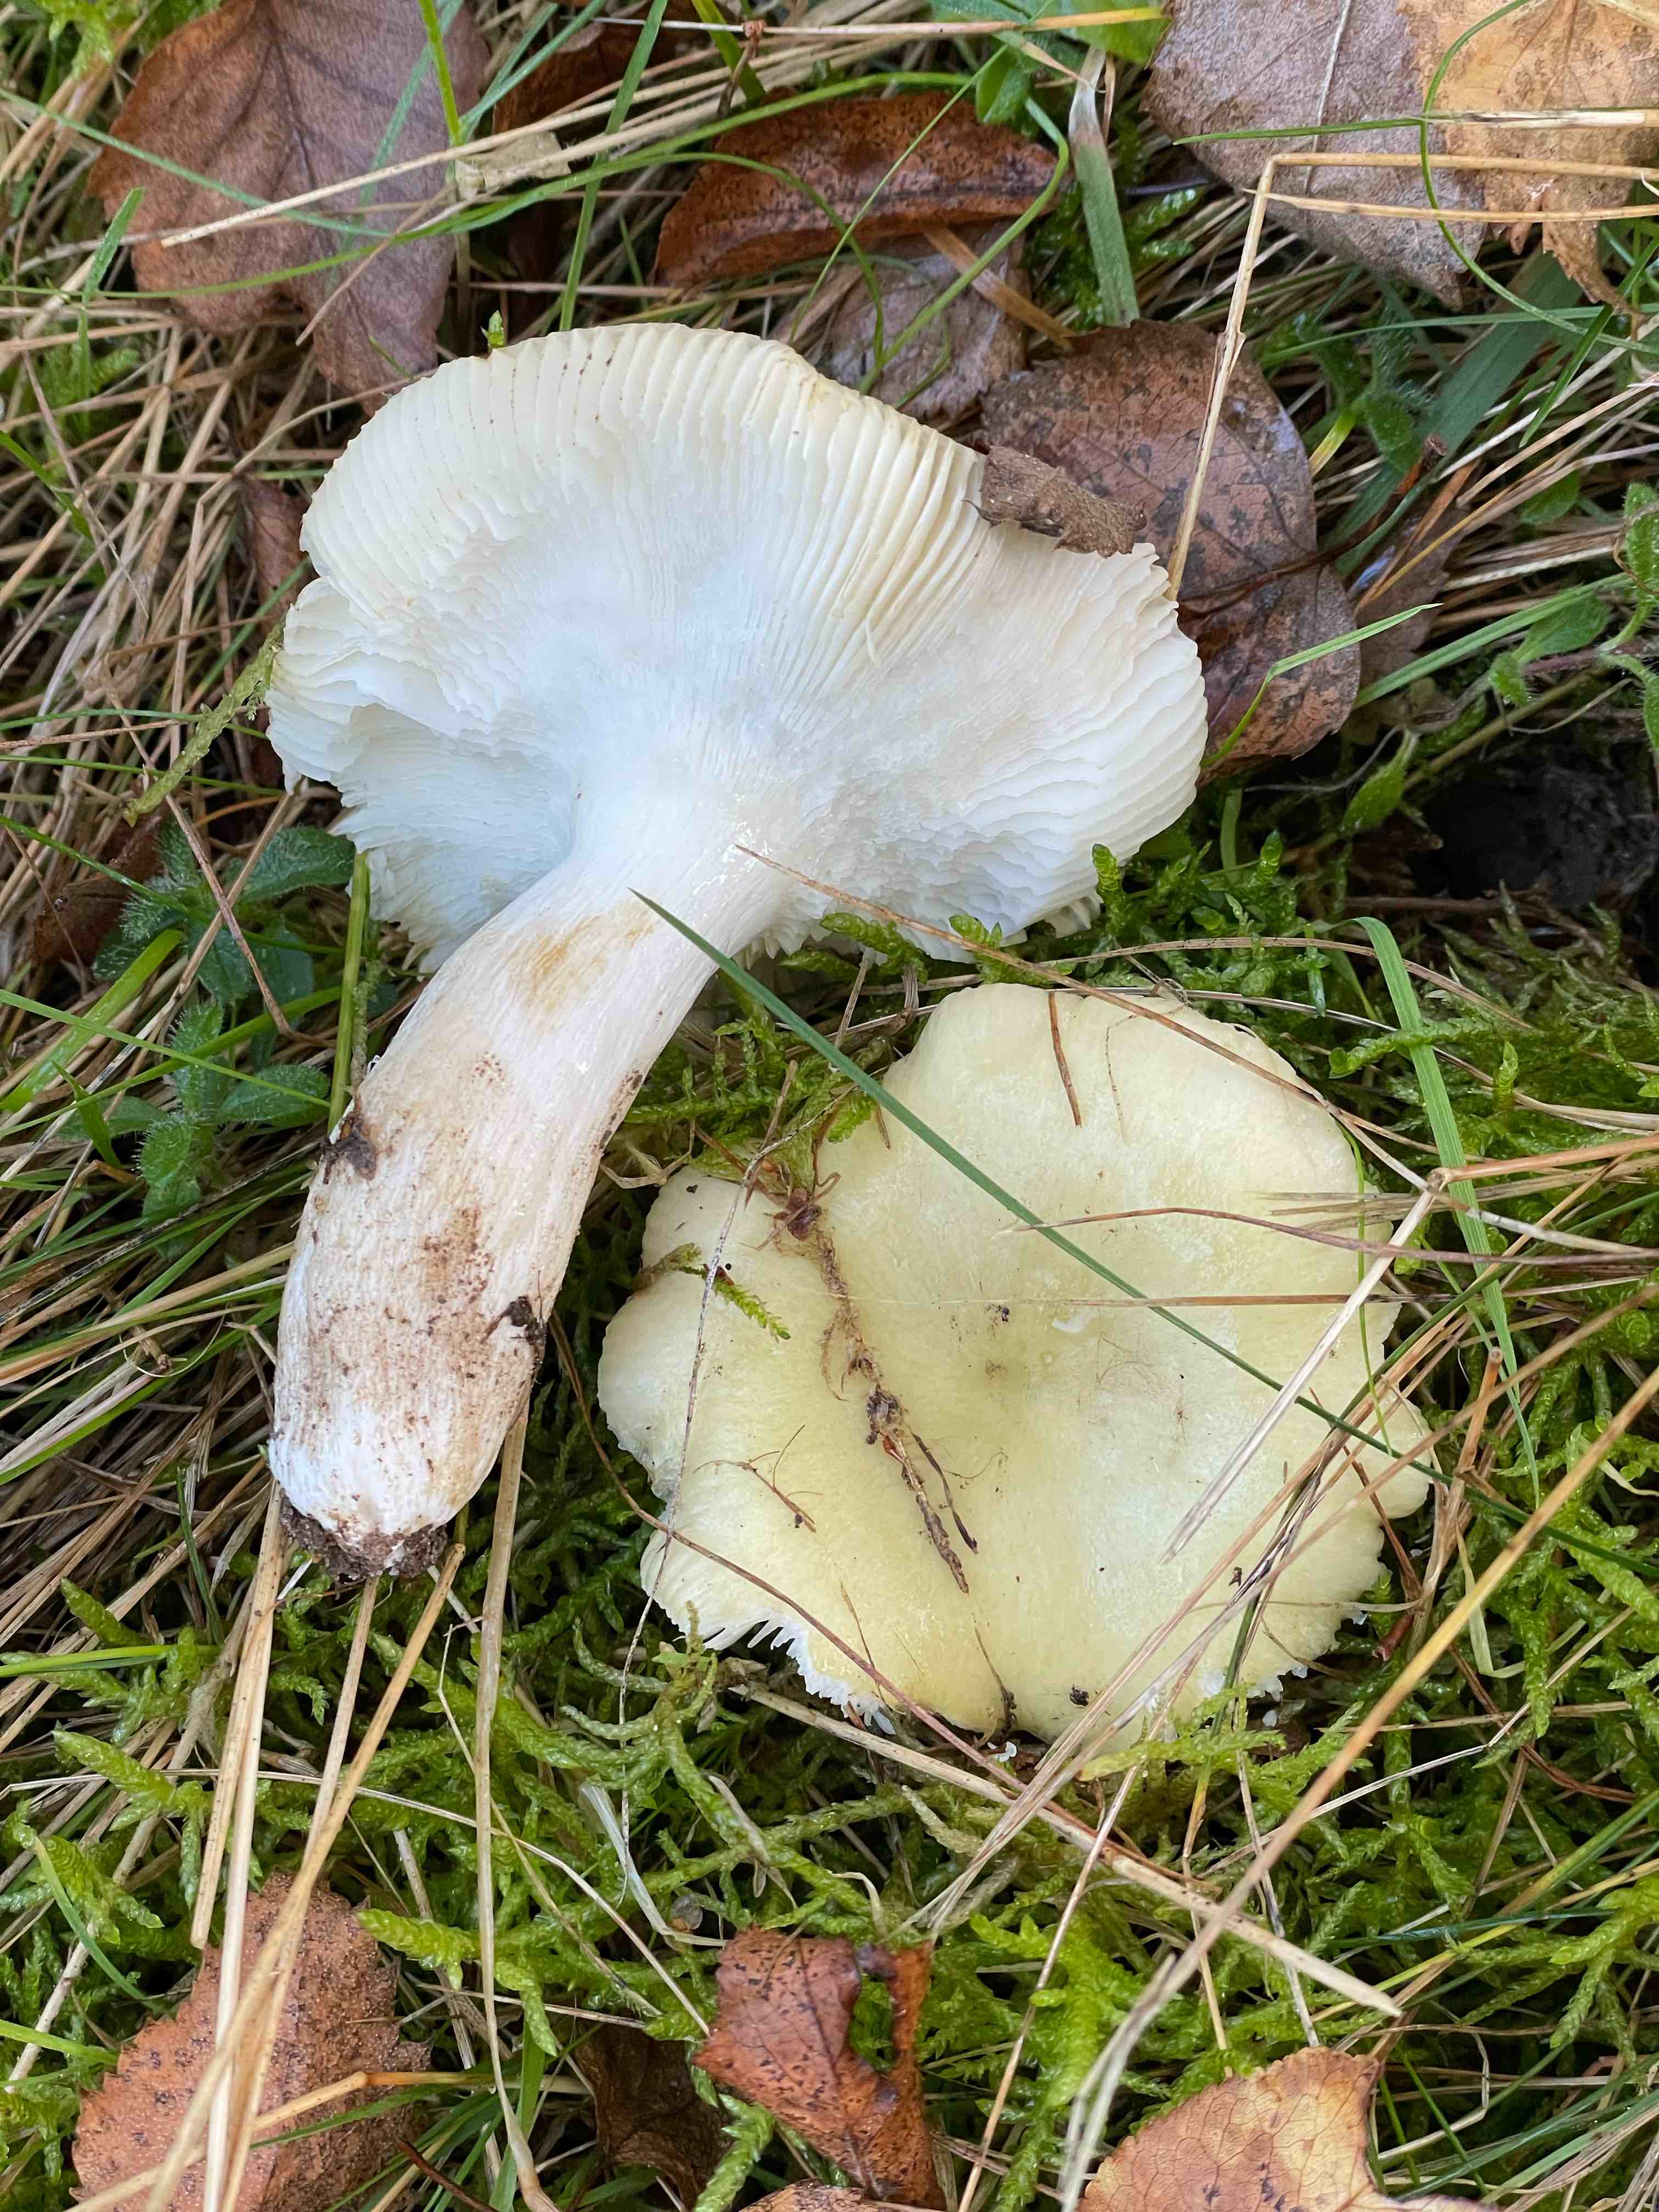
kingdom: Fungi
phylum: Basidiomycota
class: Agaricomycetes
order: Russulales
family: Russulaceae
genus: Russula
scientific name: Russula aeruginea
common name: græsgrøn skørhat
